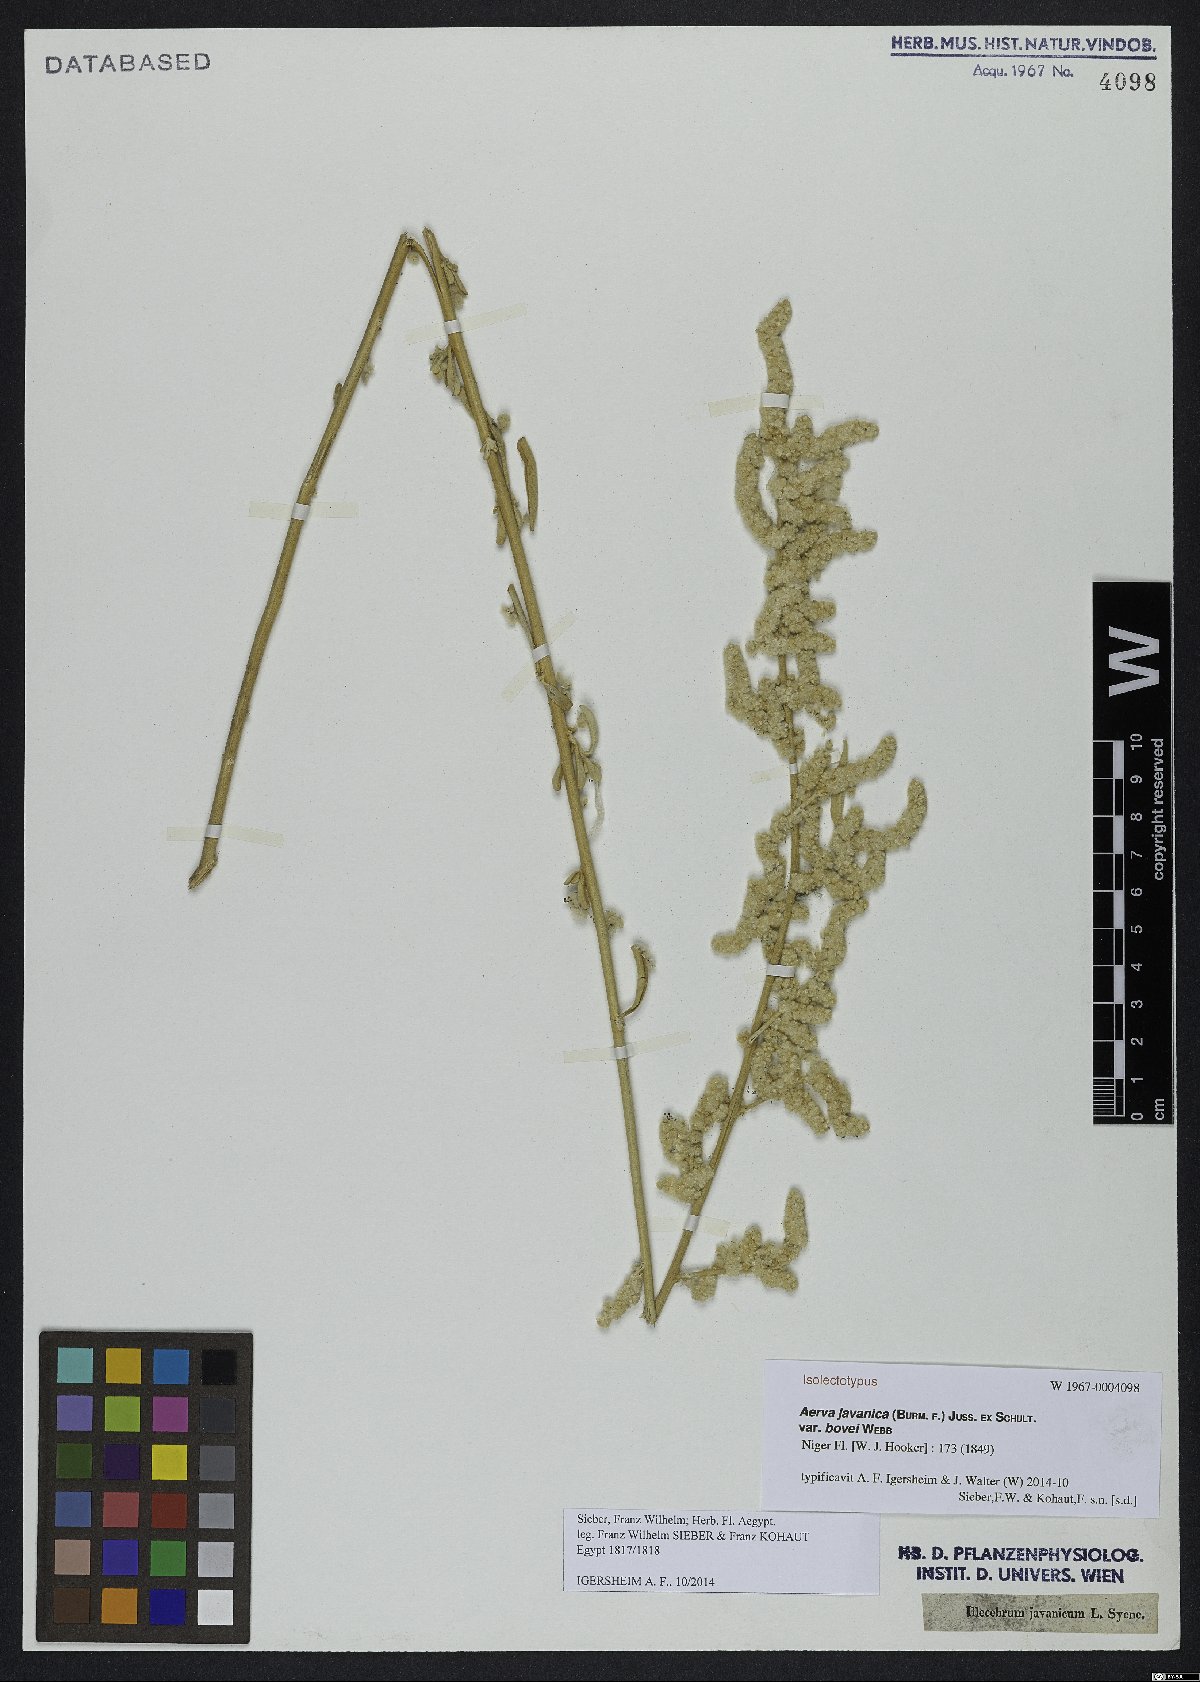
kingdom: Plantae
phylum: Tracheophyta
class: Magnoliopsida
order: Caryophyllales
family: Amaranthaceae
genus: Aerva
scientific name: Aerva javanica
